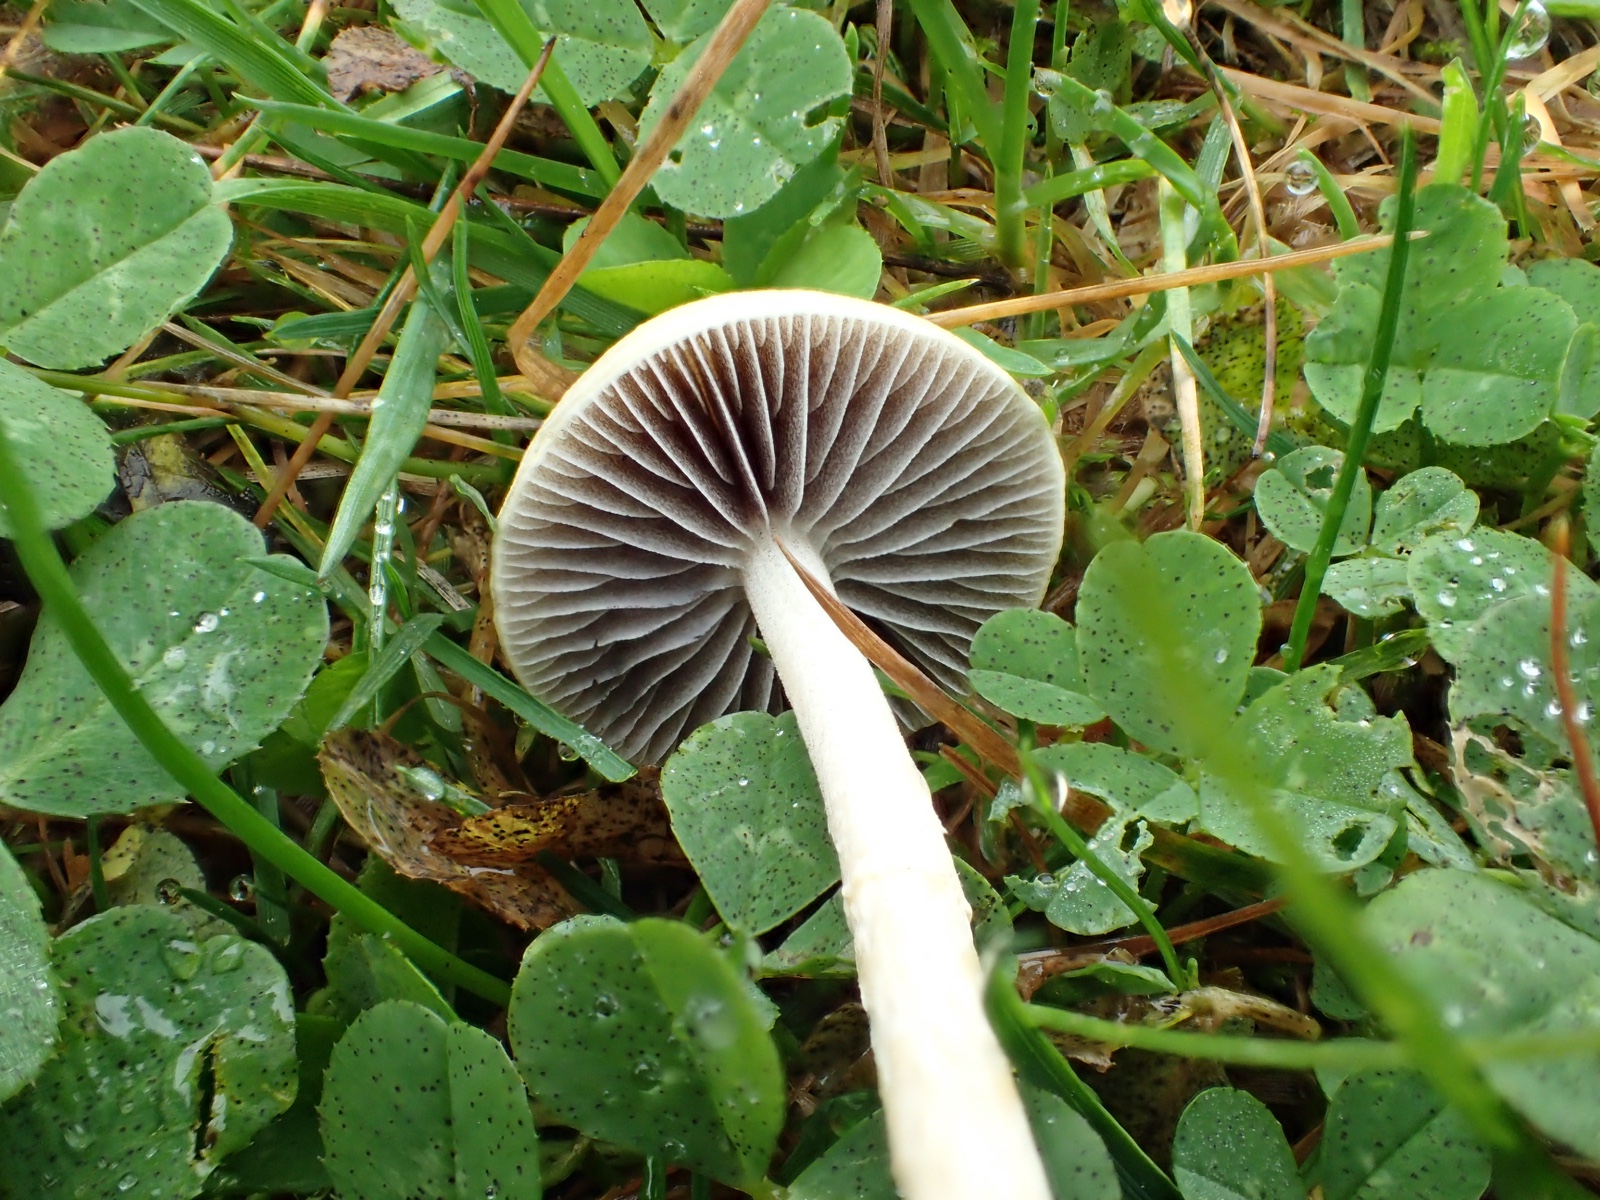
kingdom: Fungi
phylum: Basidiomycota
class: Agaricomycetes
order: Agaricales
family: Strophariaceae
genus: Protostropharia
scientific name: Protostropharia
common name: bredblad
